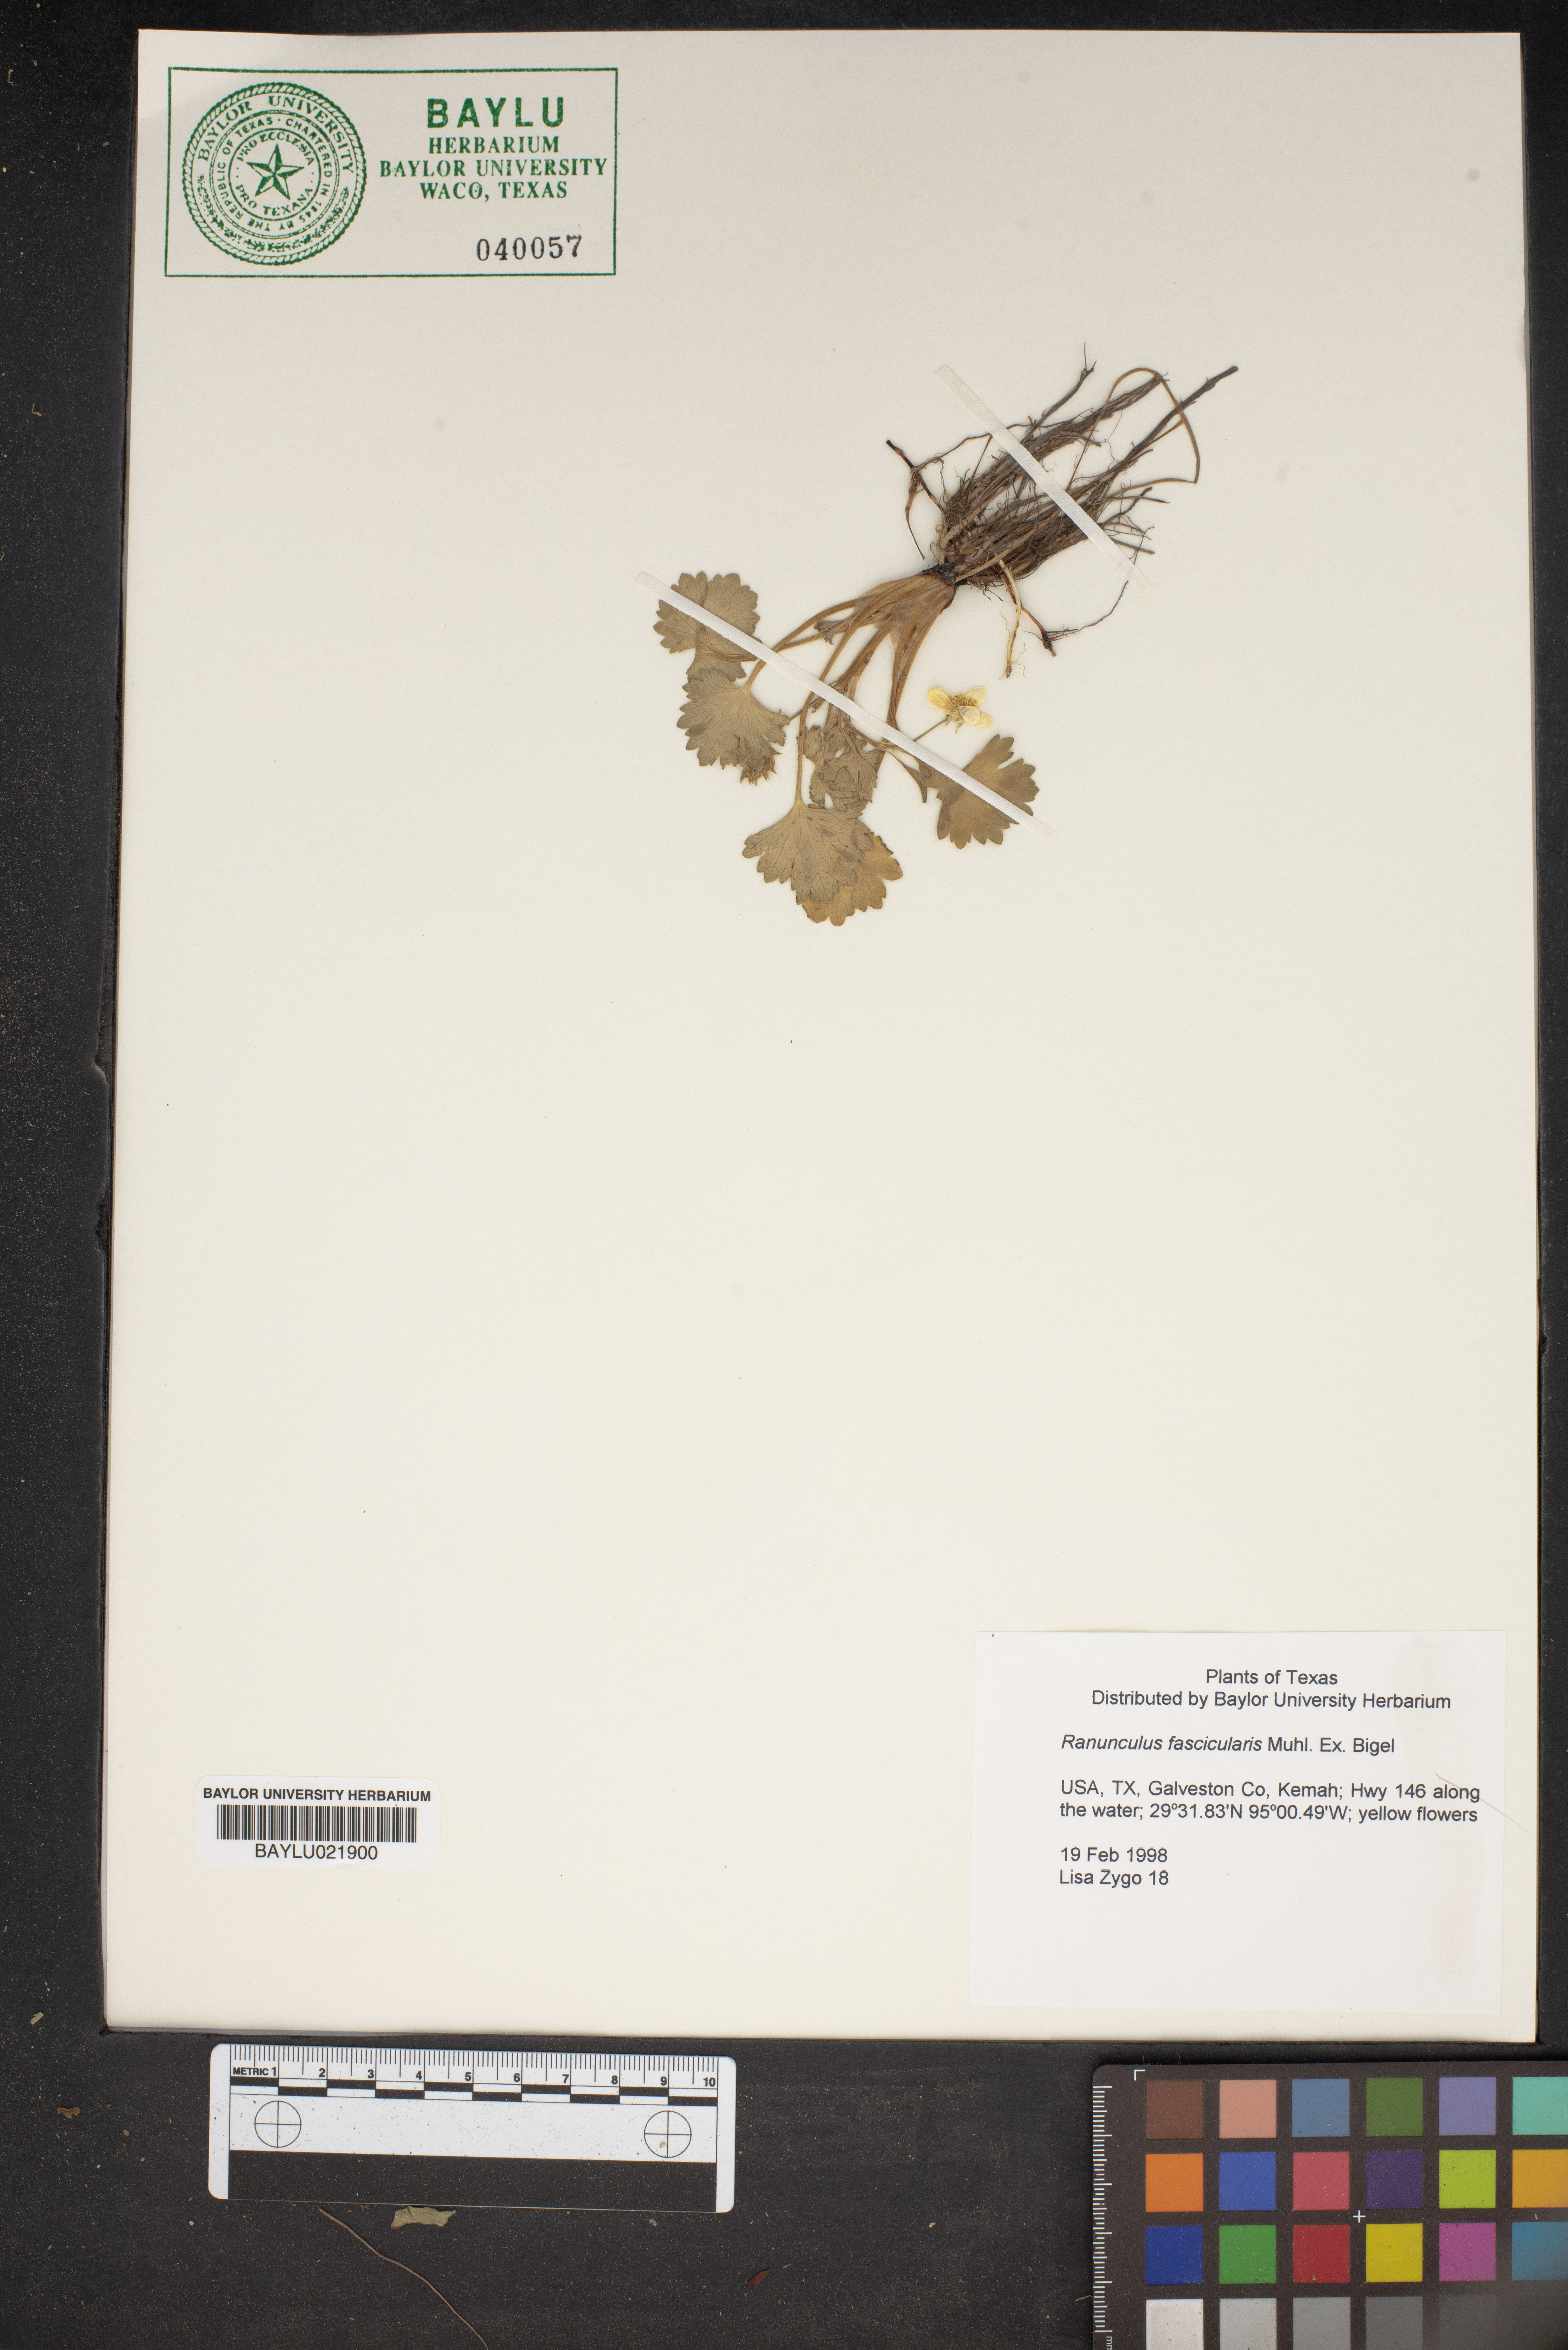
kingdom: Plantae
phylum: Tracheophyta
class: Magnoliopsida
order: Ranunculales
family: Ranunculaceae
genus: Ranunculus
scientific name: Ranunculus fascicularis
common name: Early buttercup
